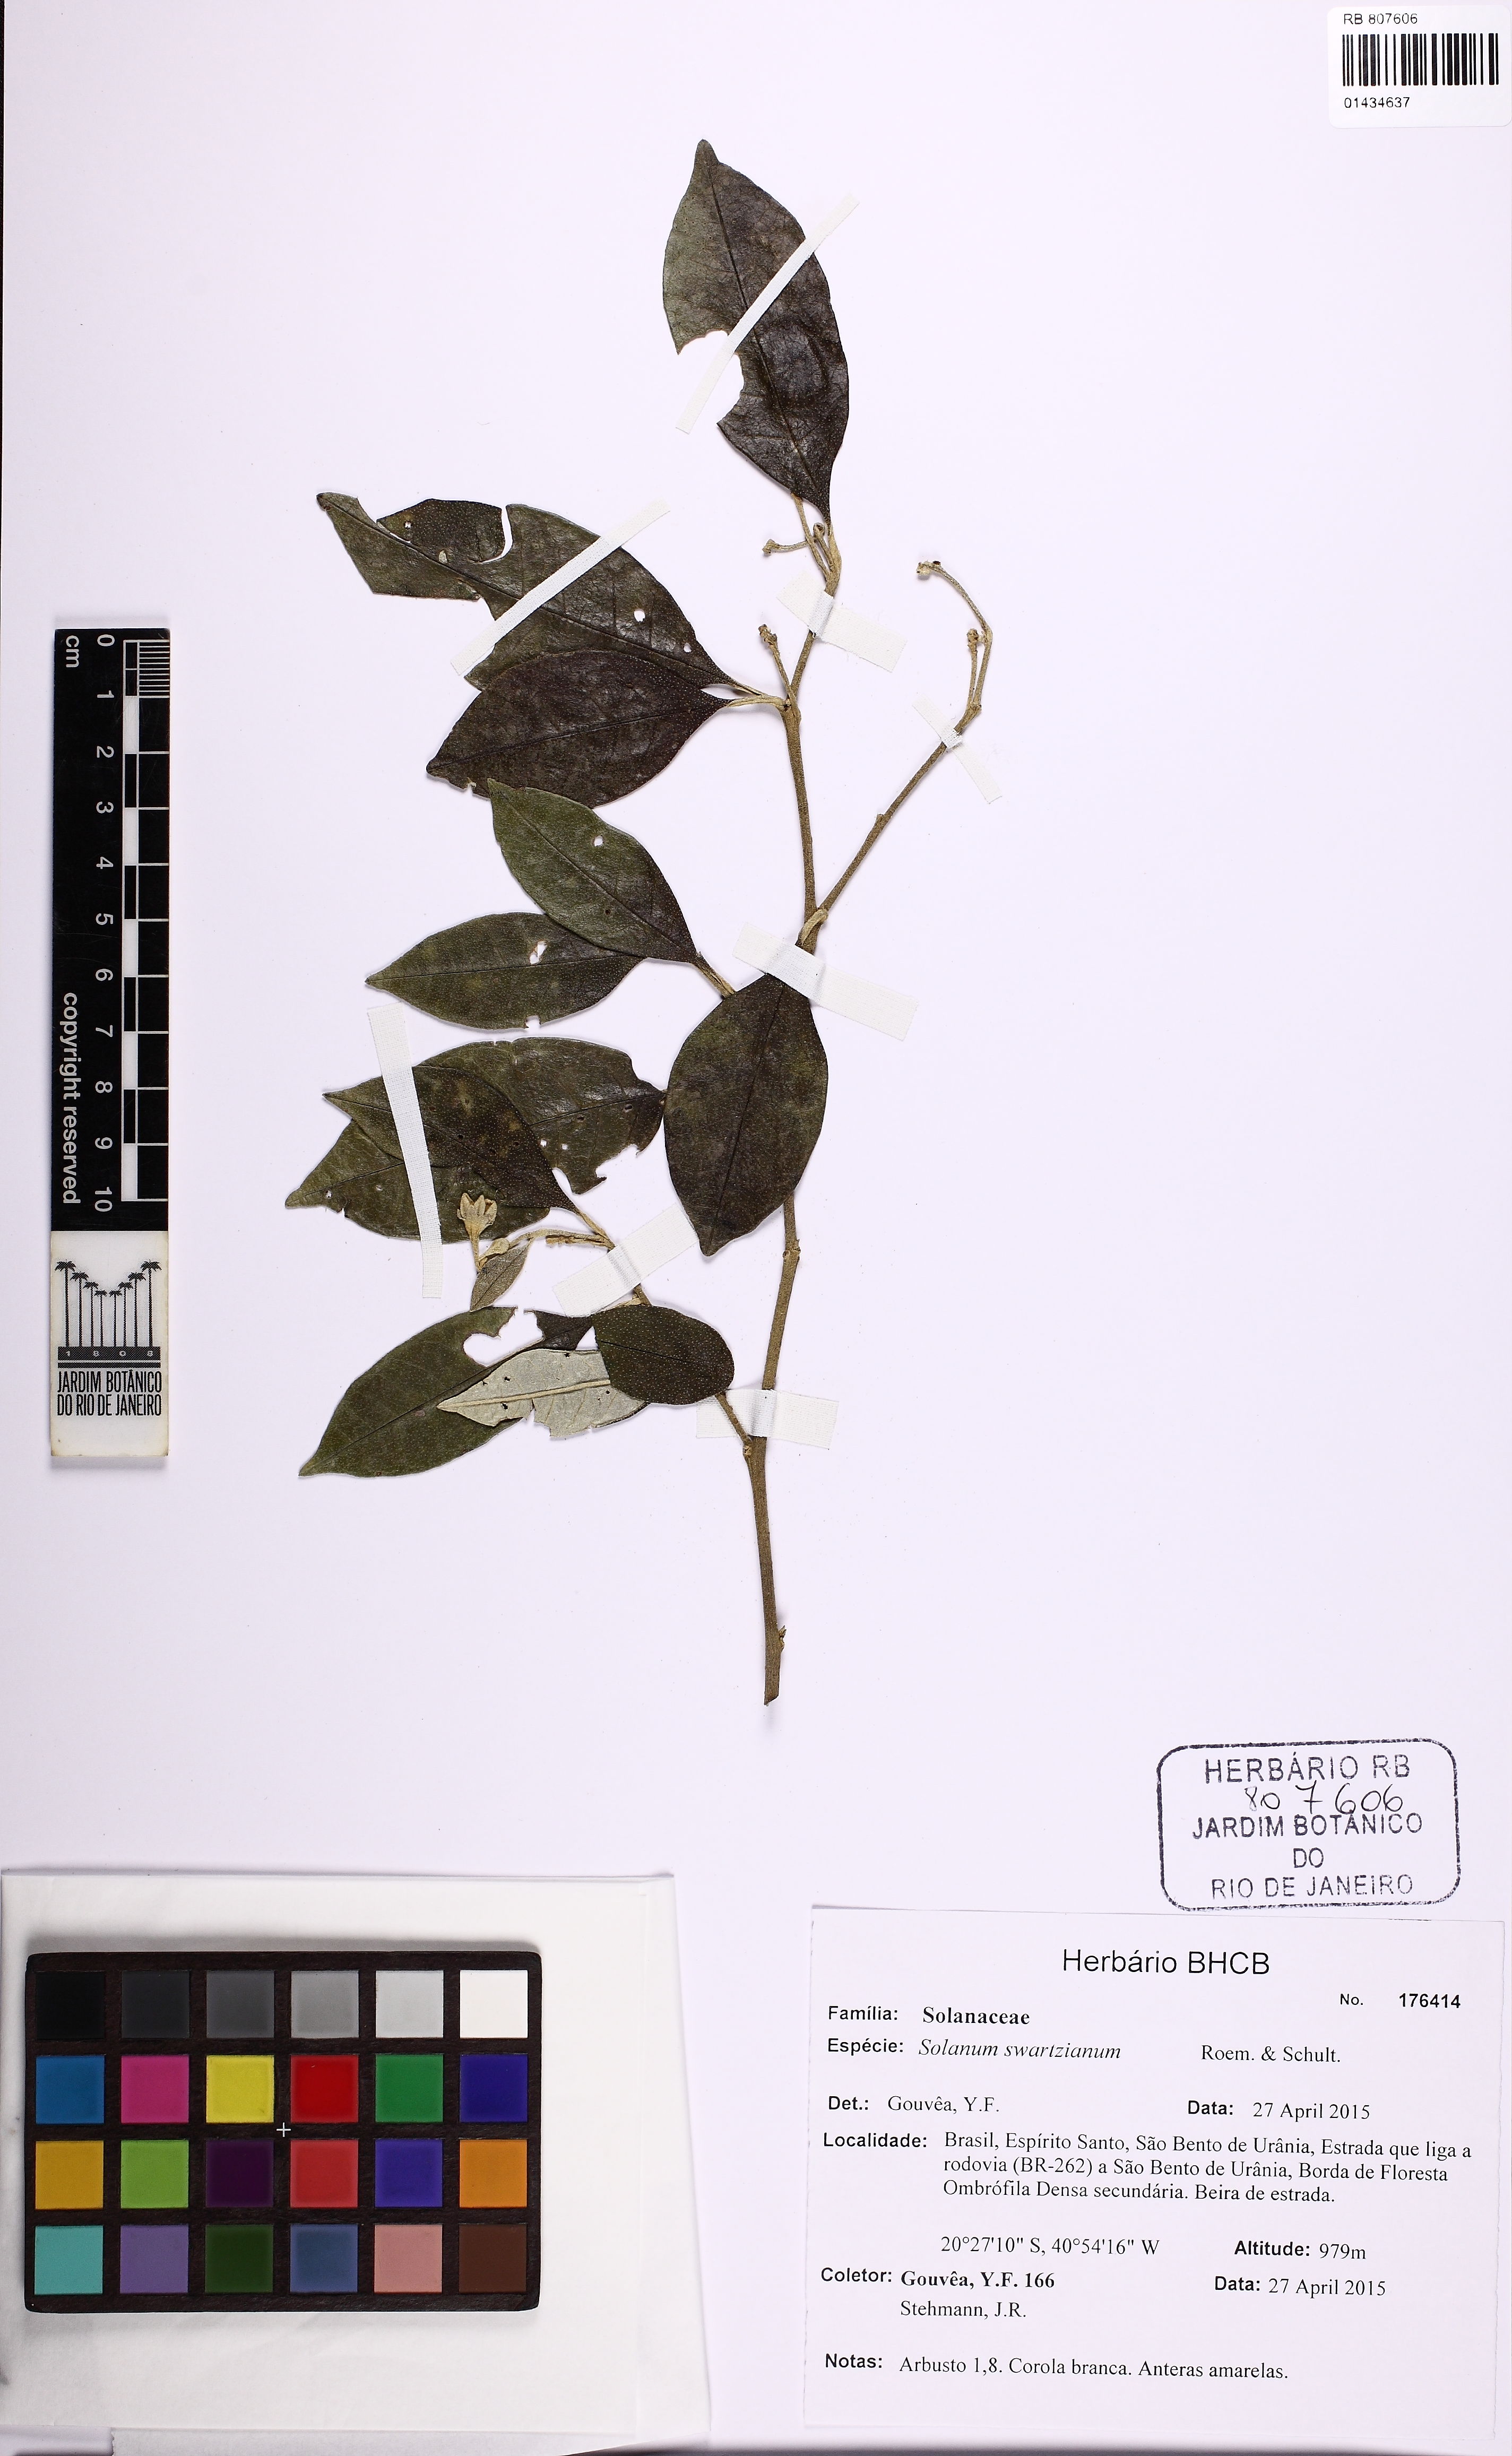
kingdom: Plantae
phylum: Tracheophyta
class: Magnoliopsida
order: Solanales
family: Solanaceae
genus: Solanum
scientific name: Solanum swartzianum
